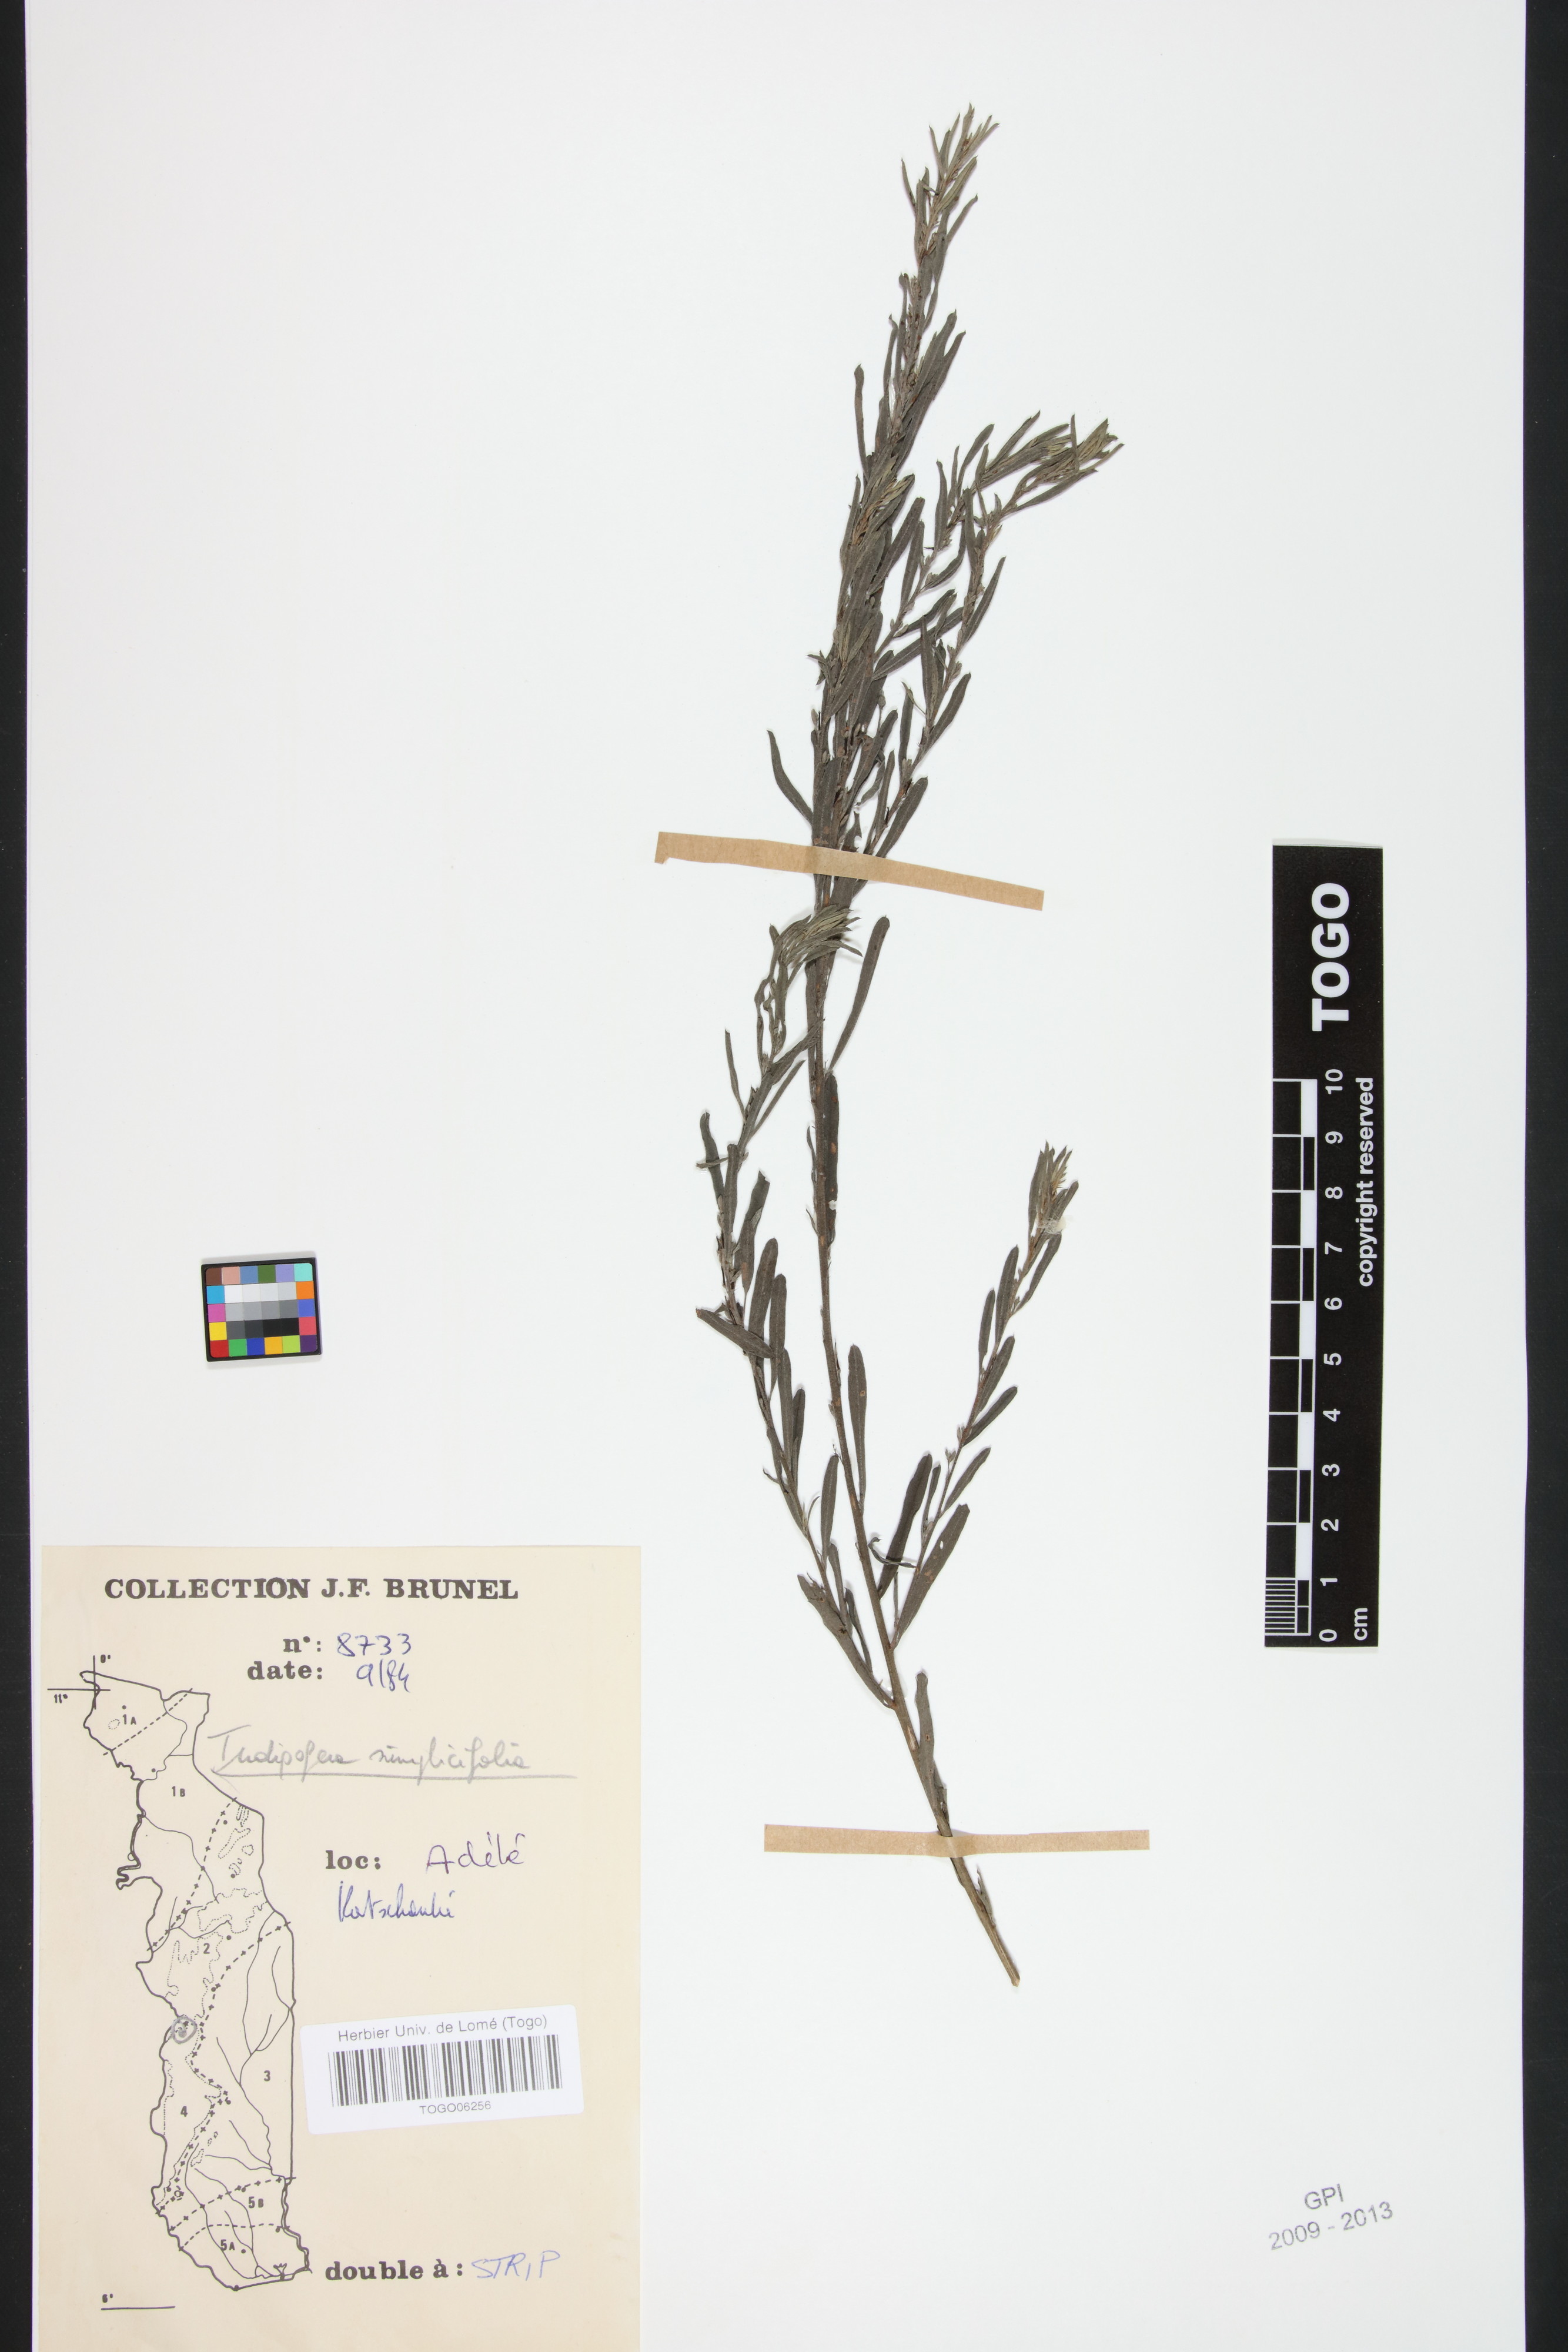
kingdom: Plantae
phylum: Tracheophyta
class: Magnoliopsida
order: Fabales
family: Fabaceae
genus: Indigofera
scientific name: Indigofera leprieurii
